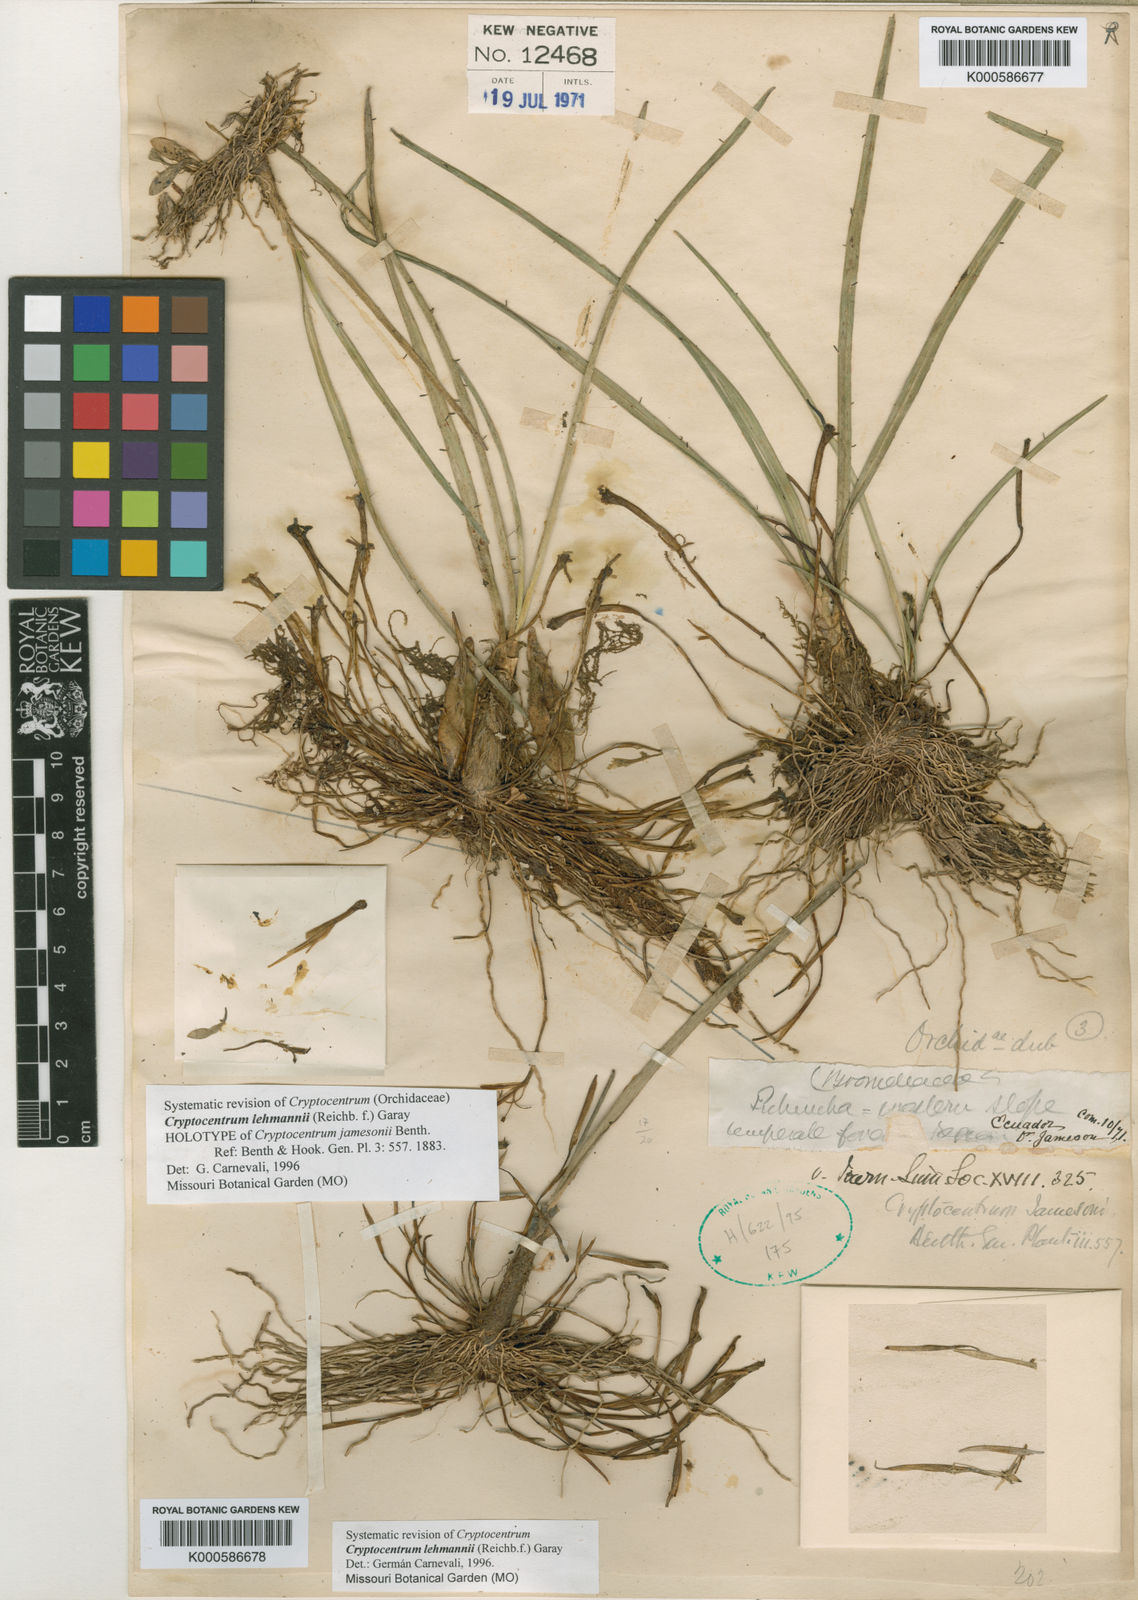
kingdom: Plantae
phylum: Tracheophyta
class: Liliopsida
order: Asparagales
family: Orchidaceae
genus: Maxillaria
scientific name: Maxillaria jacquelineana
